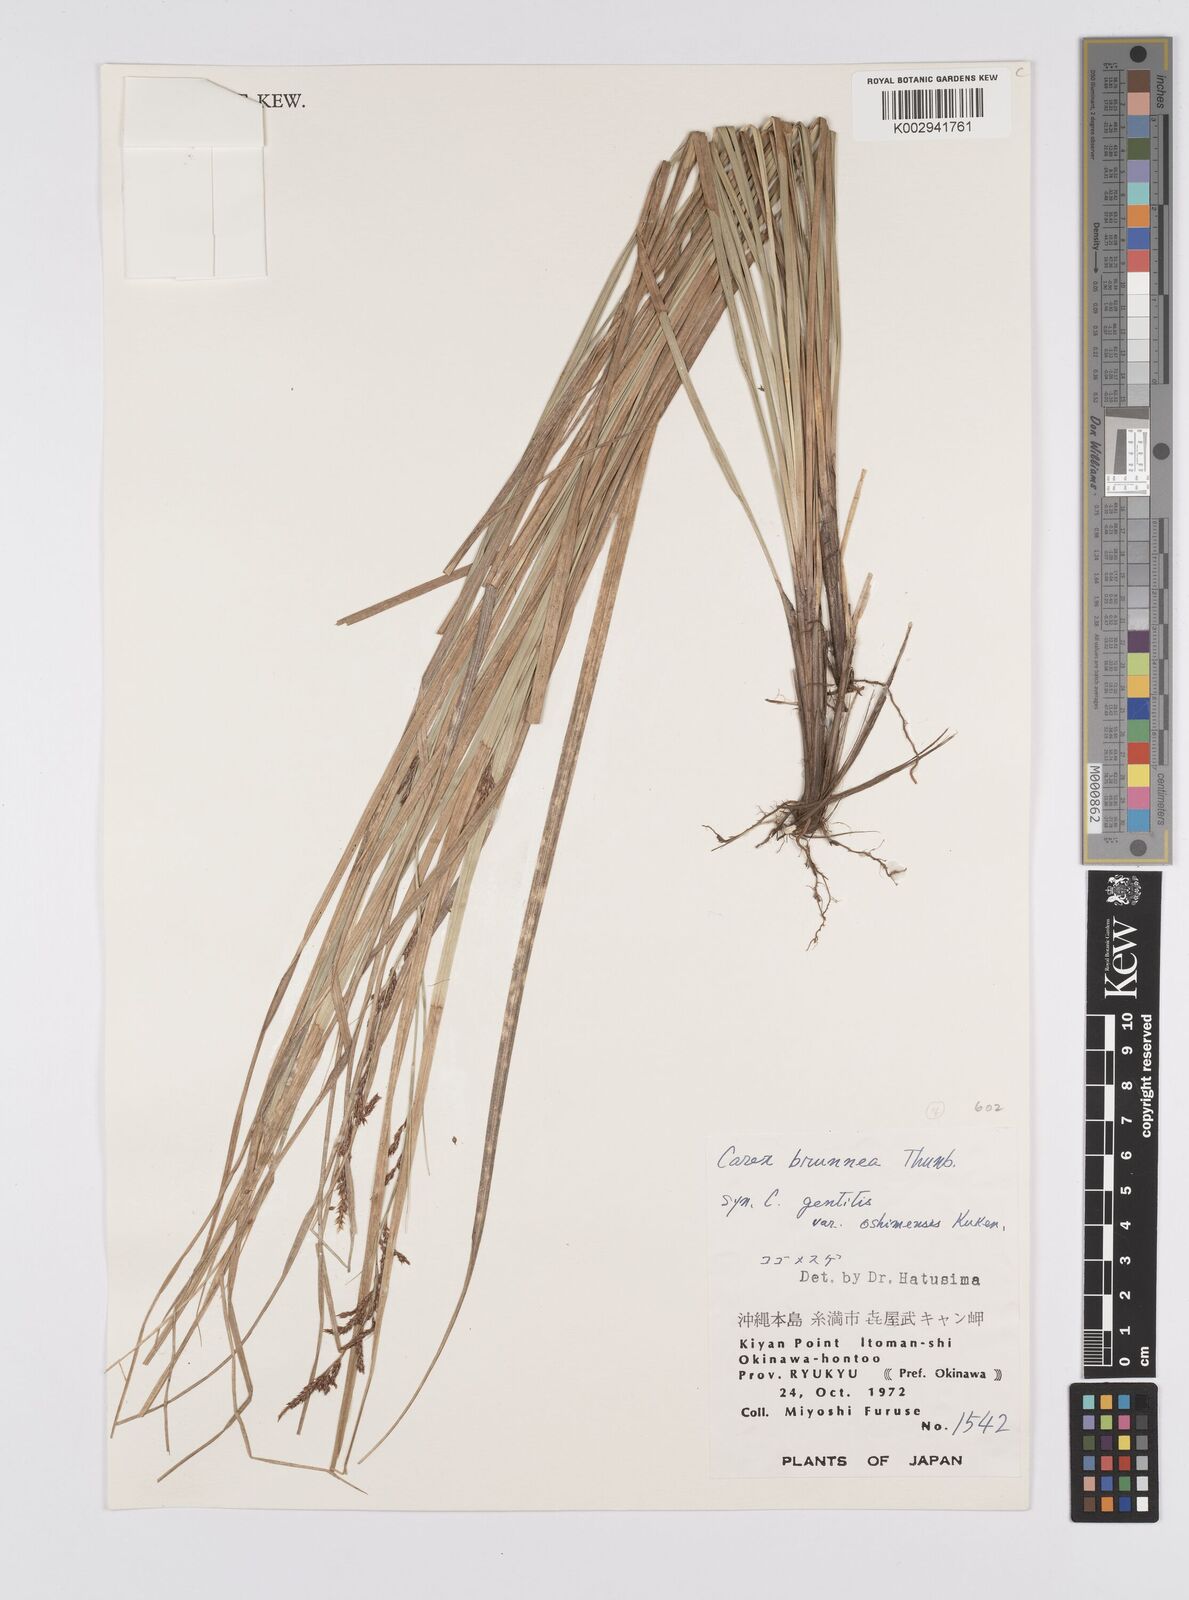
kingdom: Plantae
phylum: Tracheophyta
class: Liliopsida
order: Poales
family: Cyperaceae
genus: Carex
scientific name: Carex brunnea
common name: Greater brown sedge
